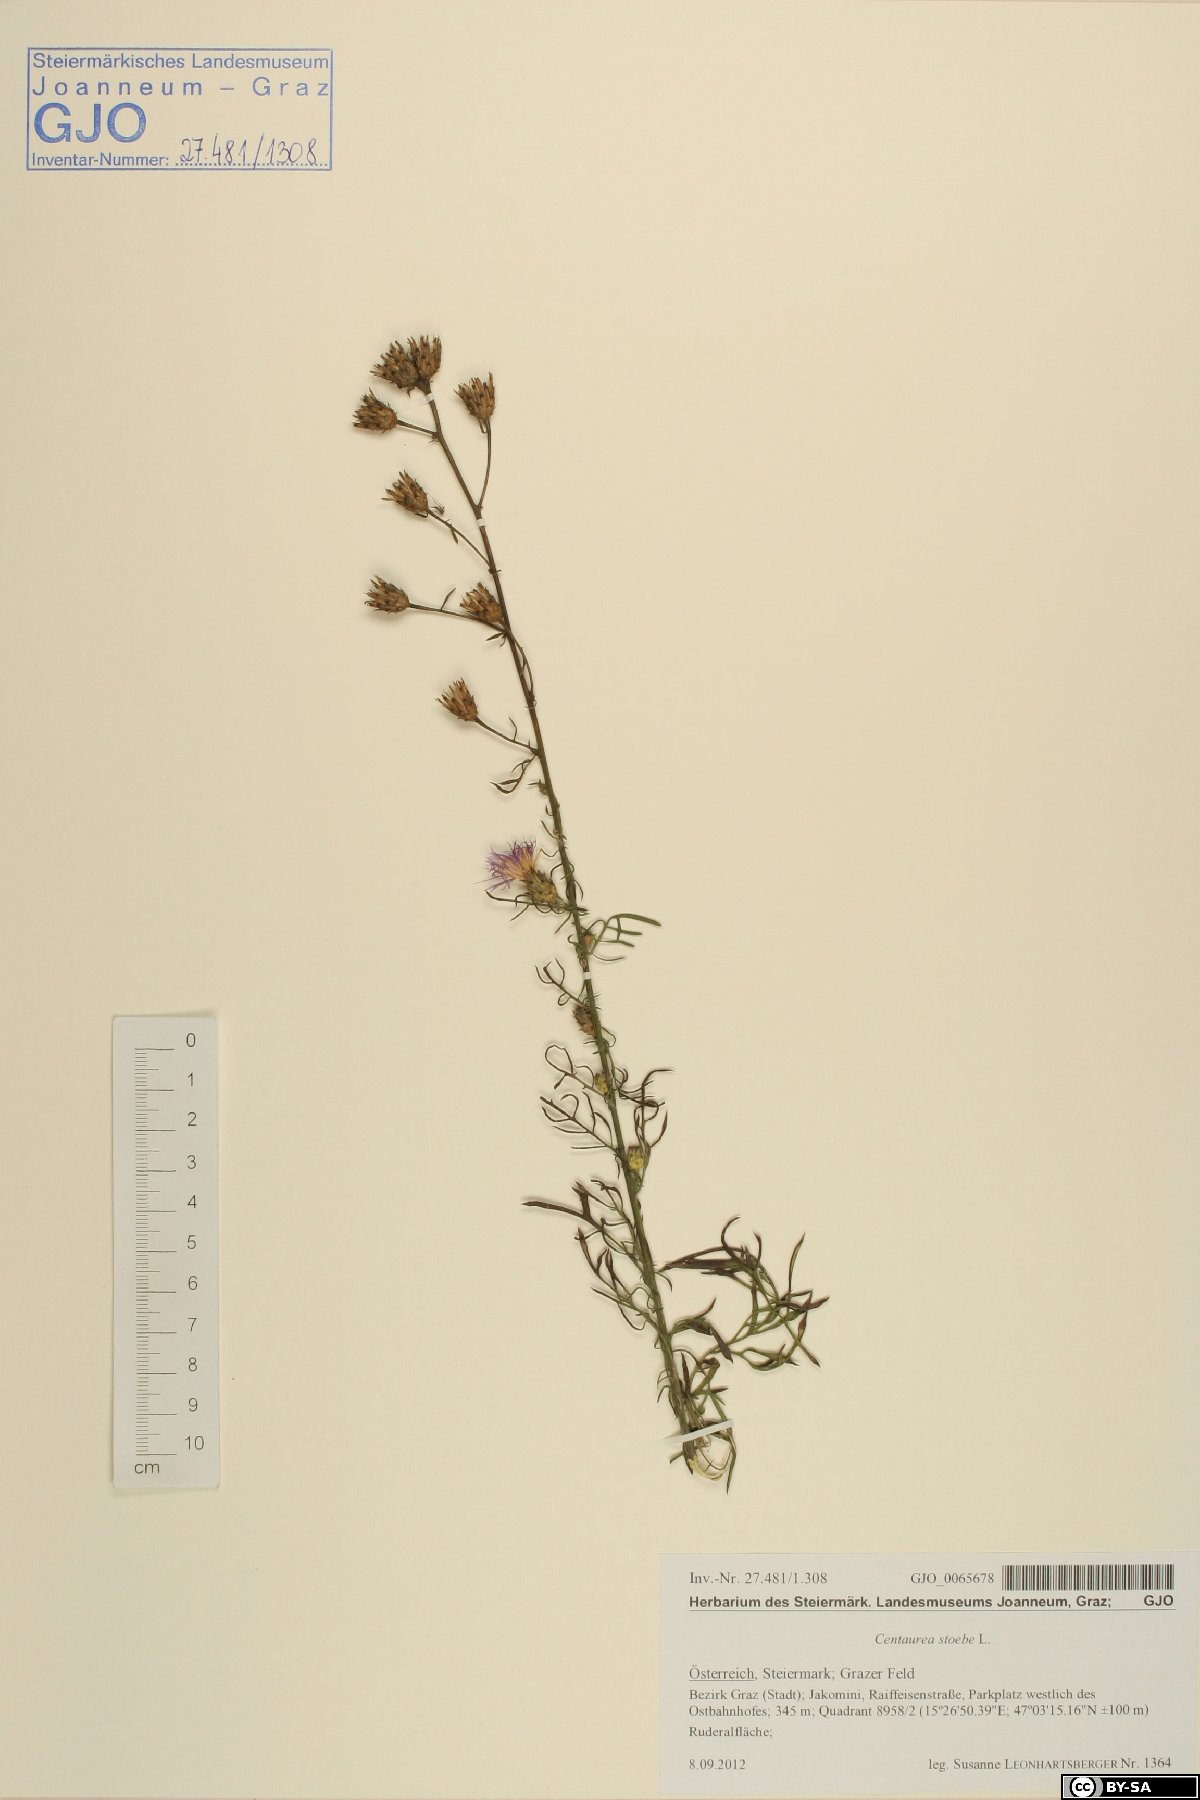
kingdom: Plantae
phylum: Tracheophyta
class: Magnoliopsida
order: Asterales
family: Asteraceae
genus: Centaurea
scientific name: Centaurea stoebe
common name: Spotted knapweed
